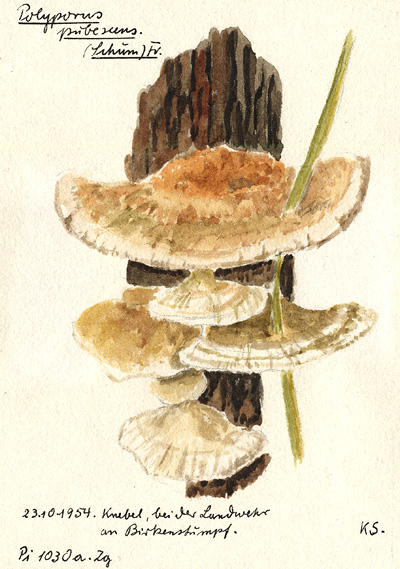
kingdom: Plantae
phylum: Tracheophyta
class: Magnoliopsida
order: Fagales
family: Betulaceae
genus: Betula
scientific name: Betula
